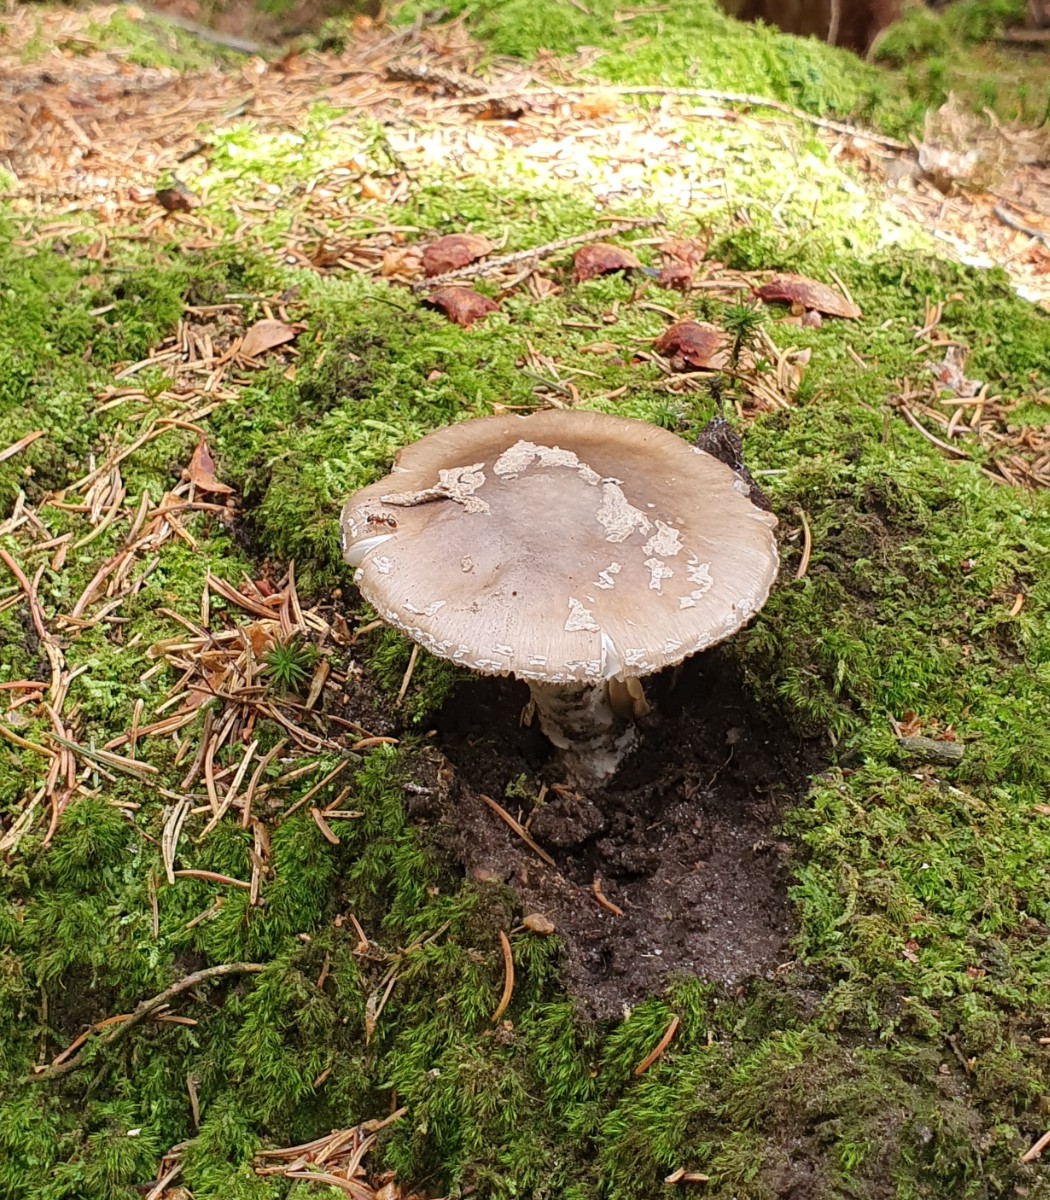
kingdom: Fungi
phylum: Basidiomycota
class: Agaricomycetes
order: Agaricales
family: Amanitaceae
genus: Amanita
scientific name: Amanita
